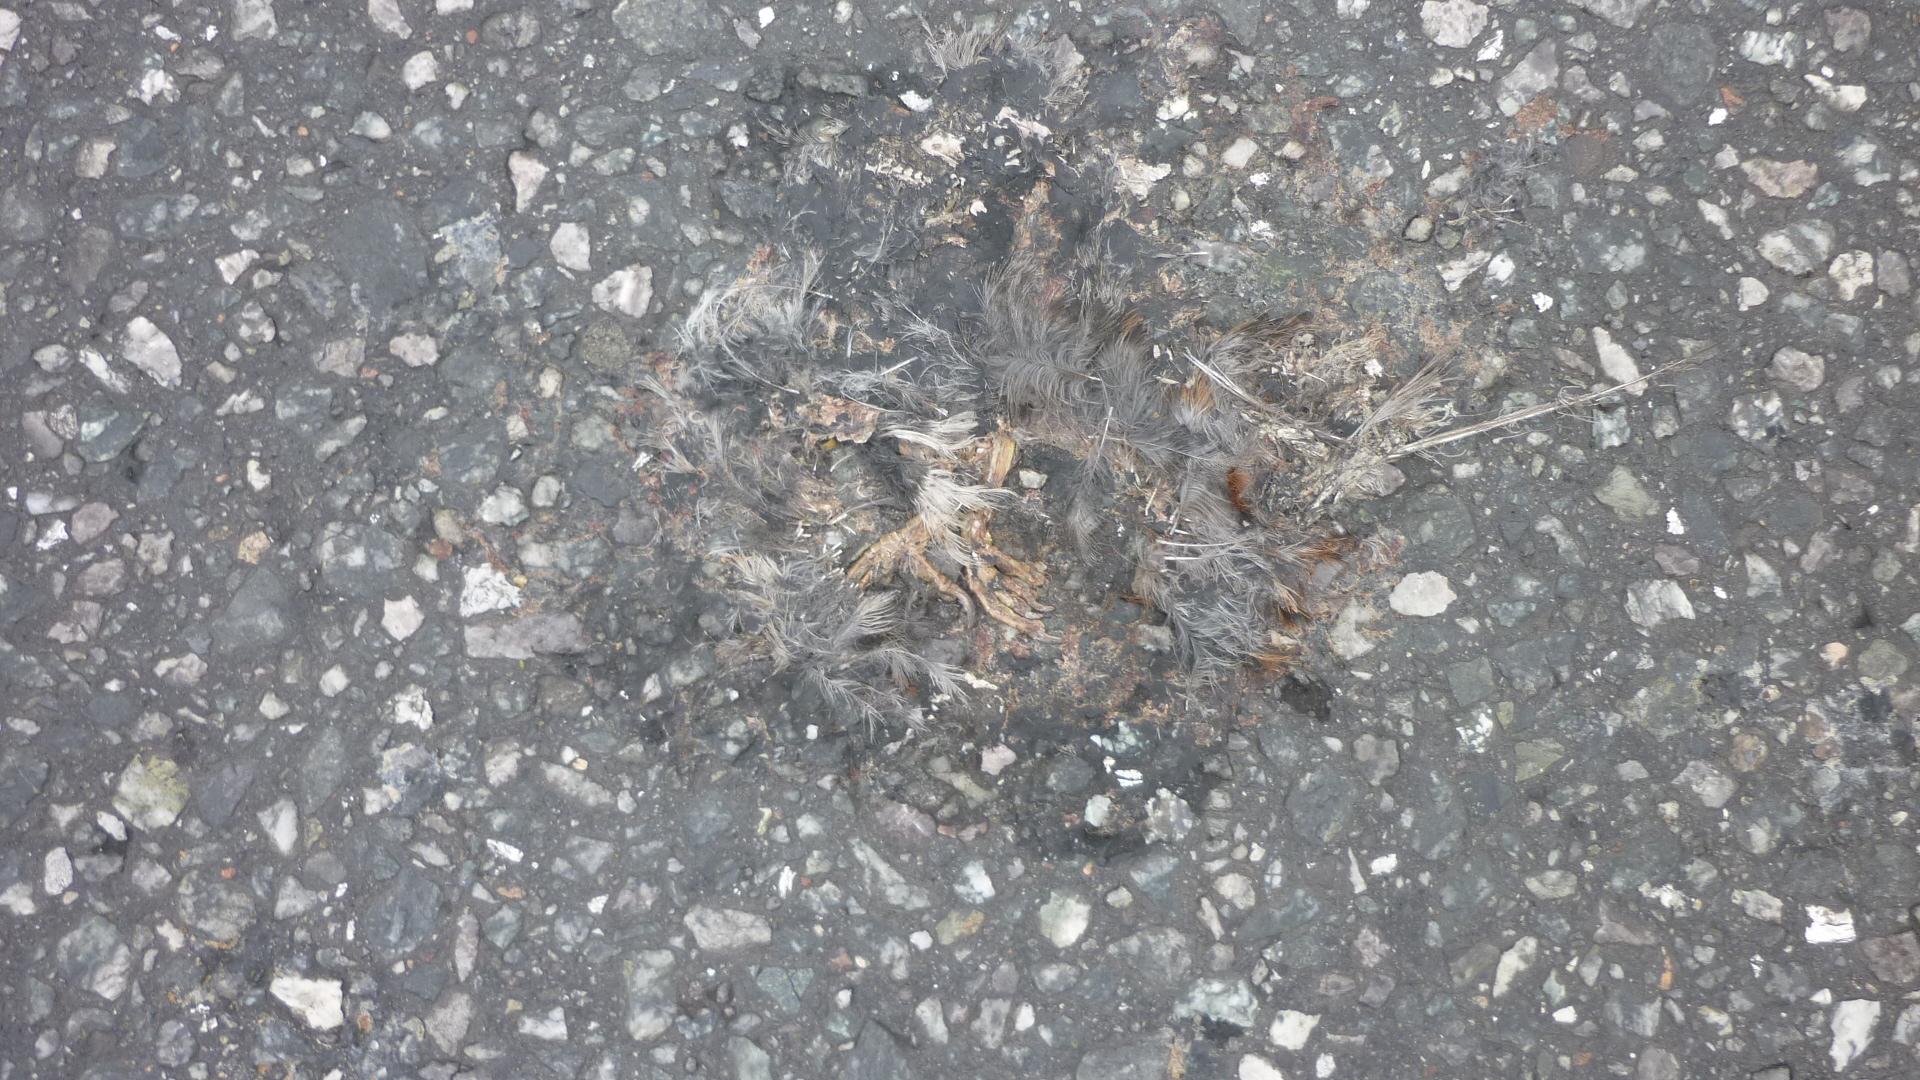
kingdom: Animalia
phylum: Chordata
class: Aves
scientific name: Aves
